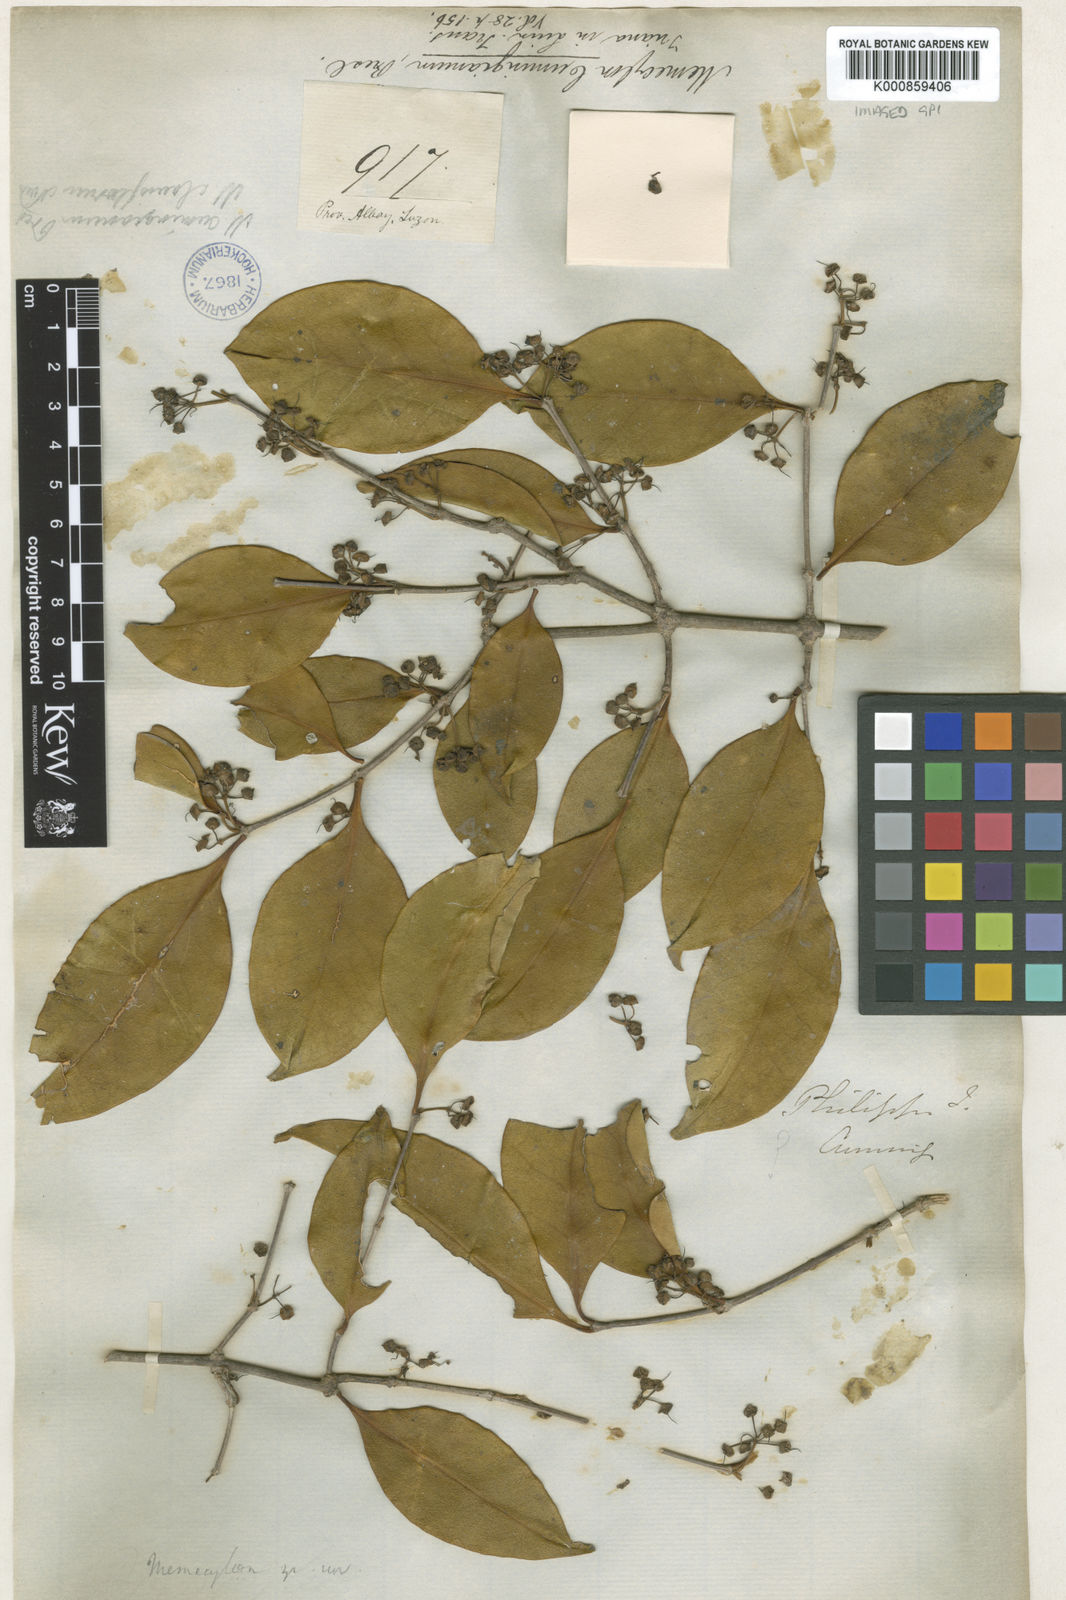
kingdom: Plantae
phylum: Tracheophyta
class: Magnoliopsida
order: Myrtales
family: Melastomataceae
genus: Memecylon
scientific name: Memecylon lanceolatum
